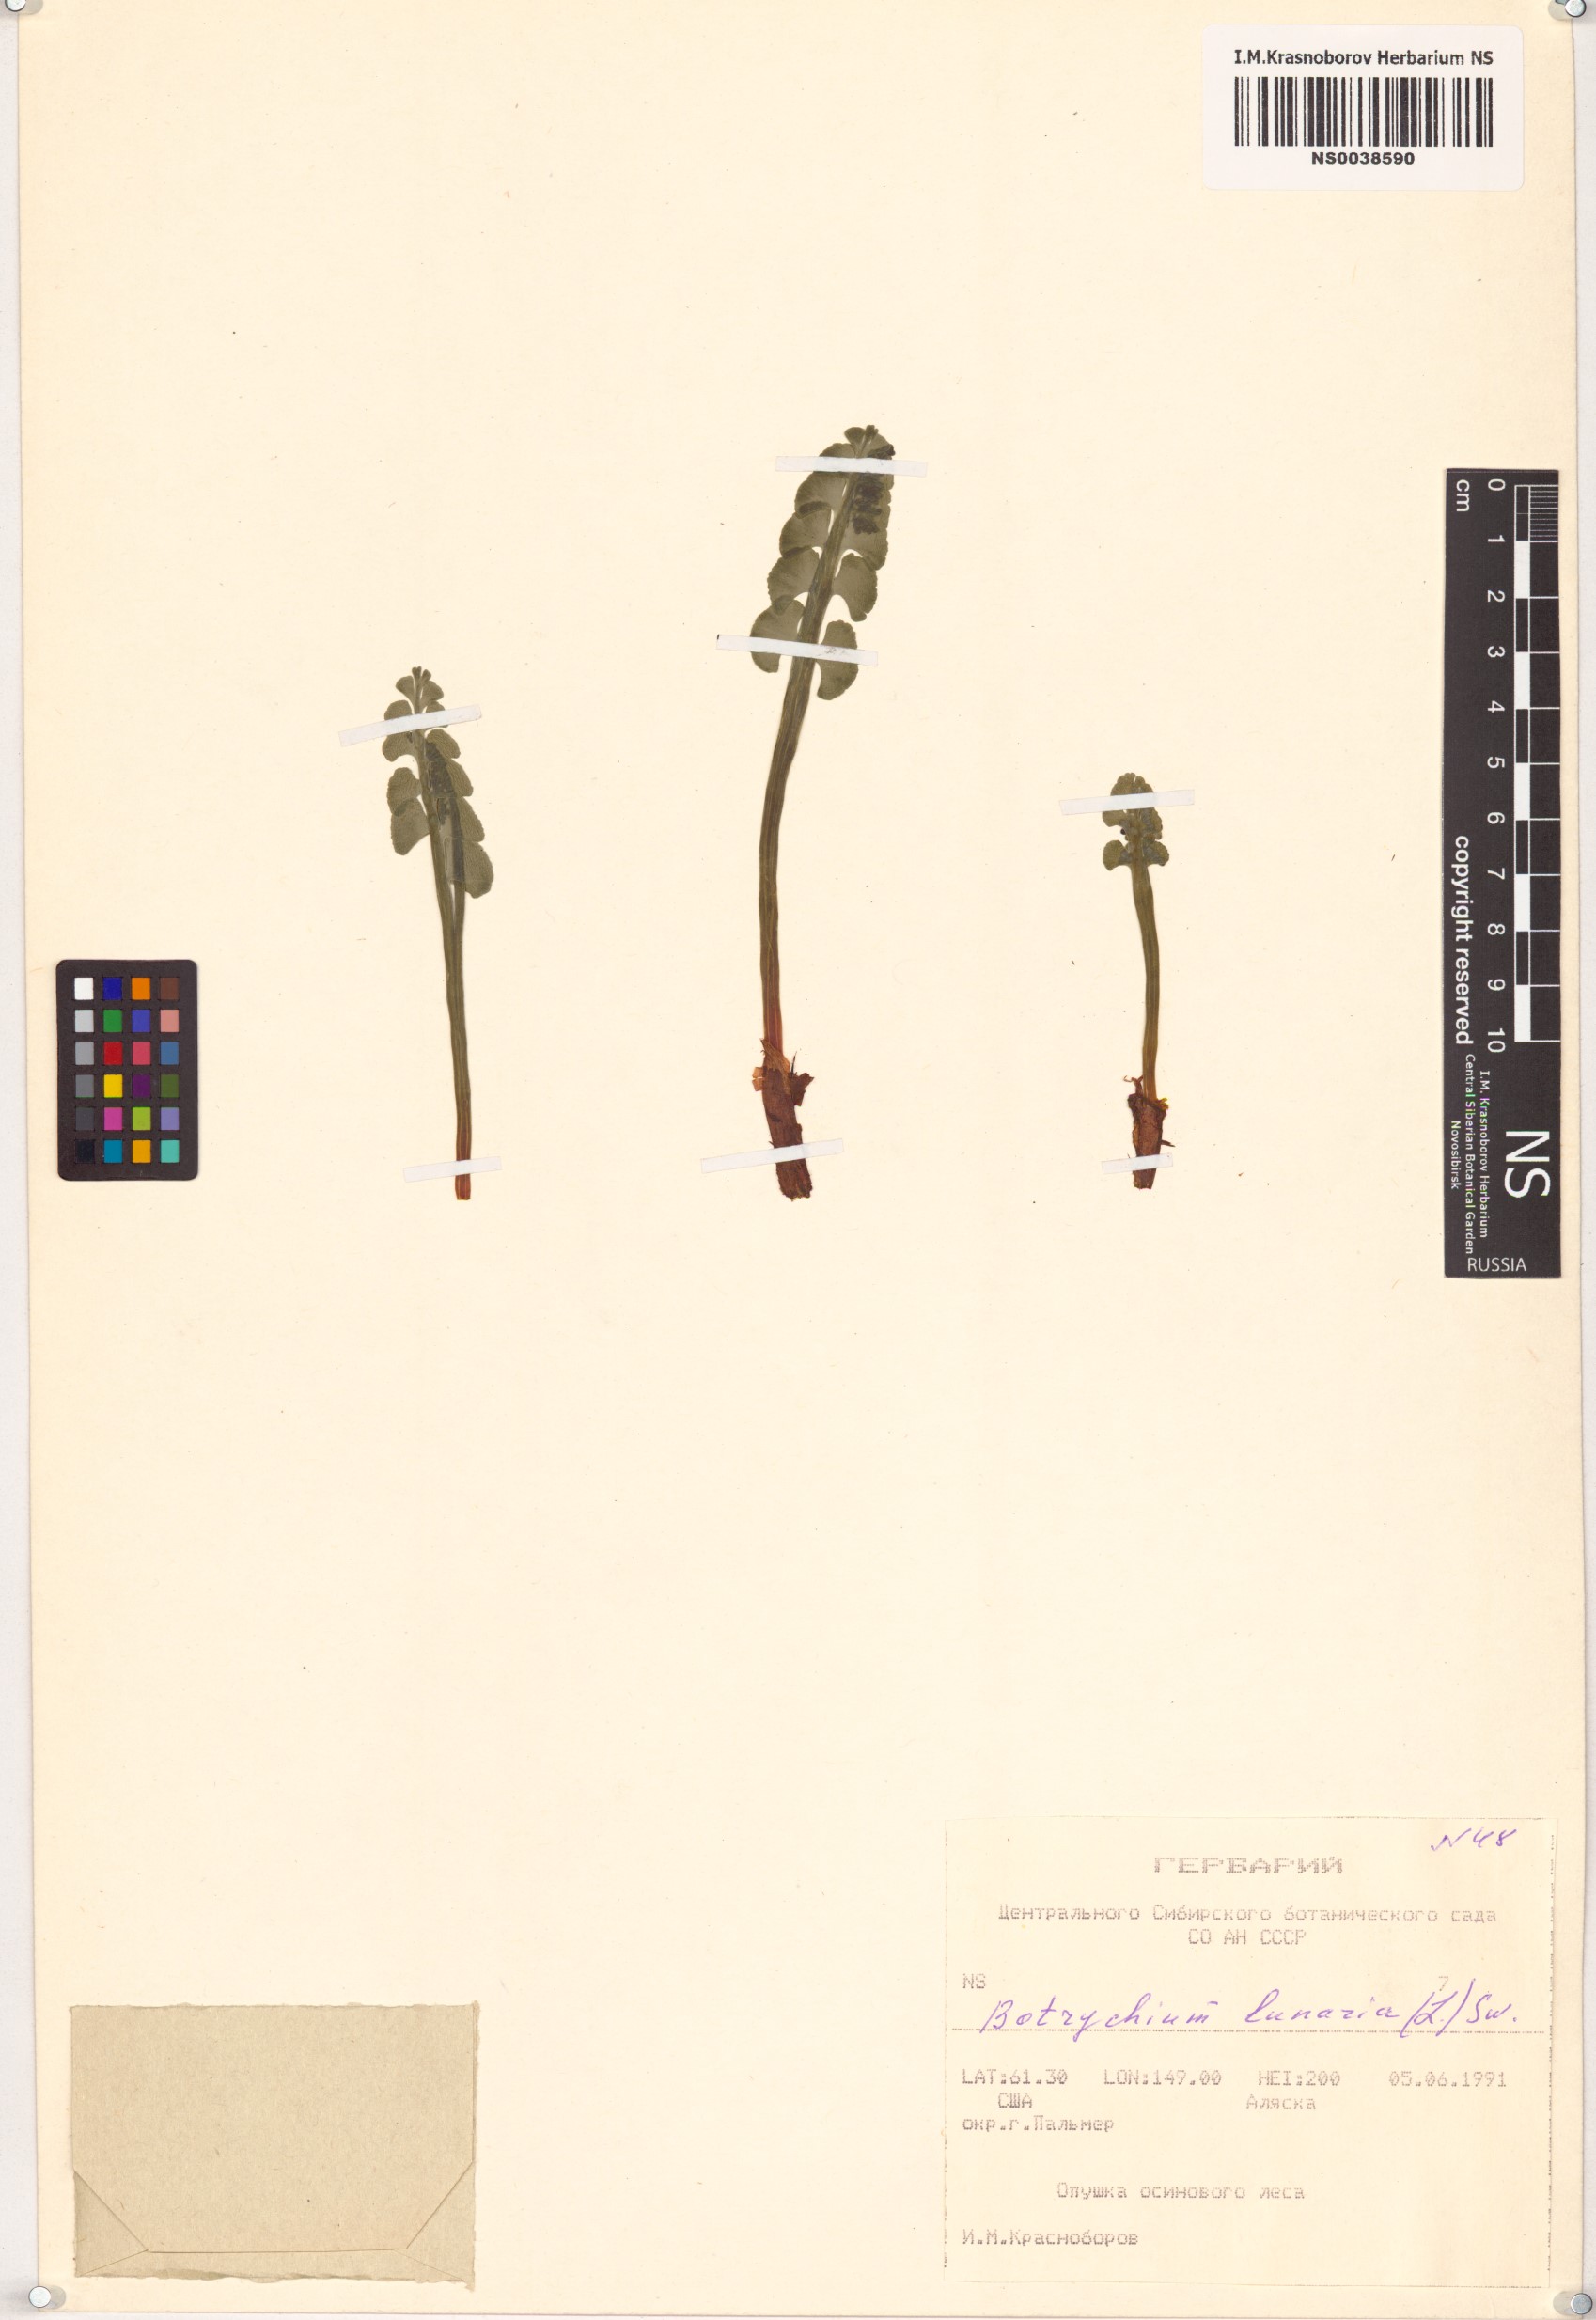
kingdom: Plantae
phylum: Tracheophyta
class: Polypodiopsida
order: Ophioglossales
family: Ophioglossaceae
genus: Botrychium
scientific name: Botrychium lunaria
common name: Moonwort
